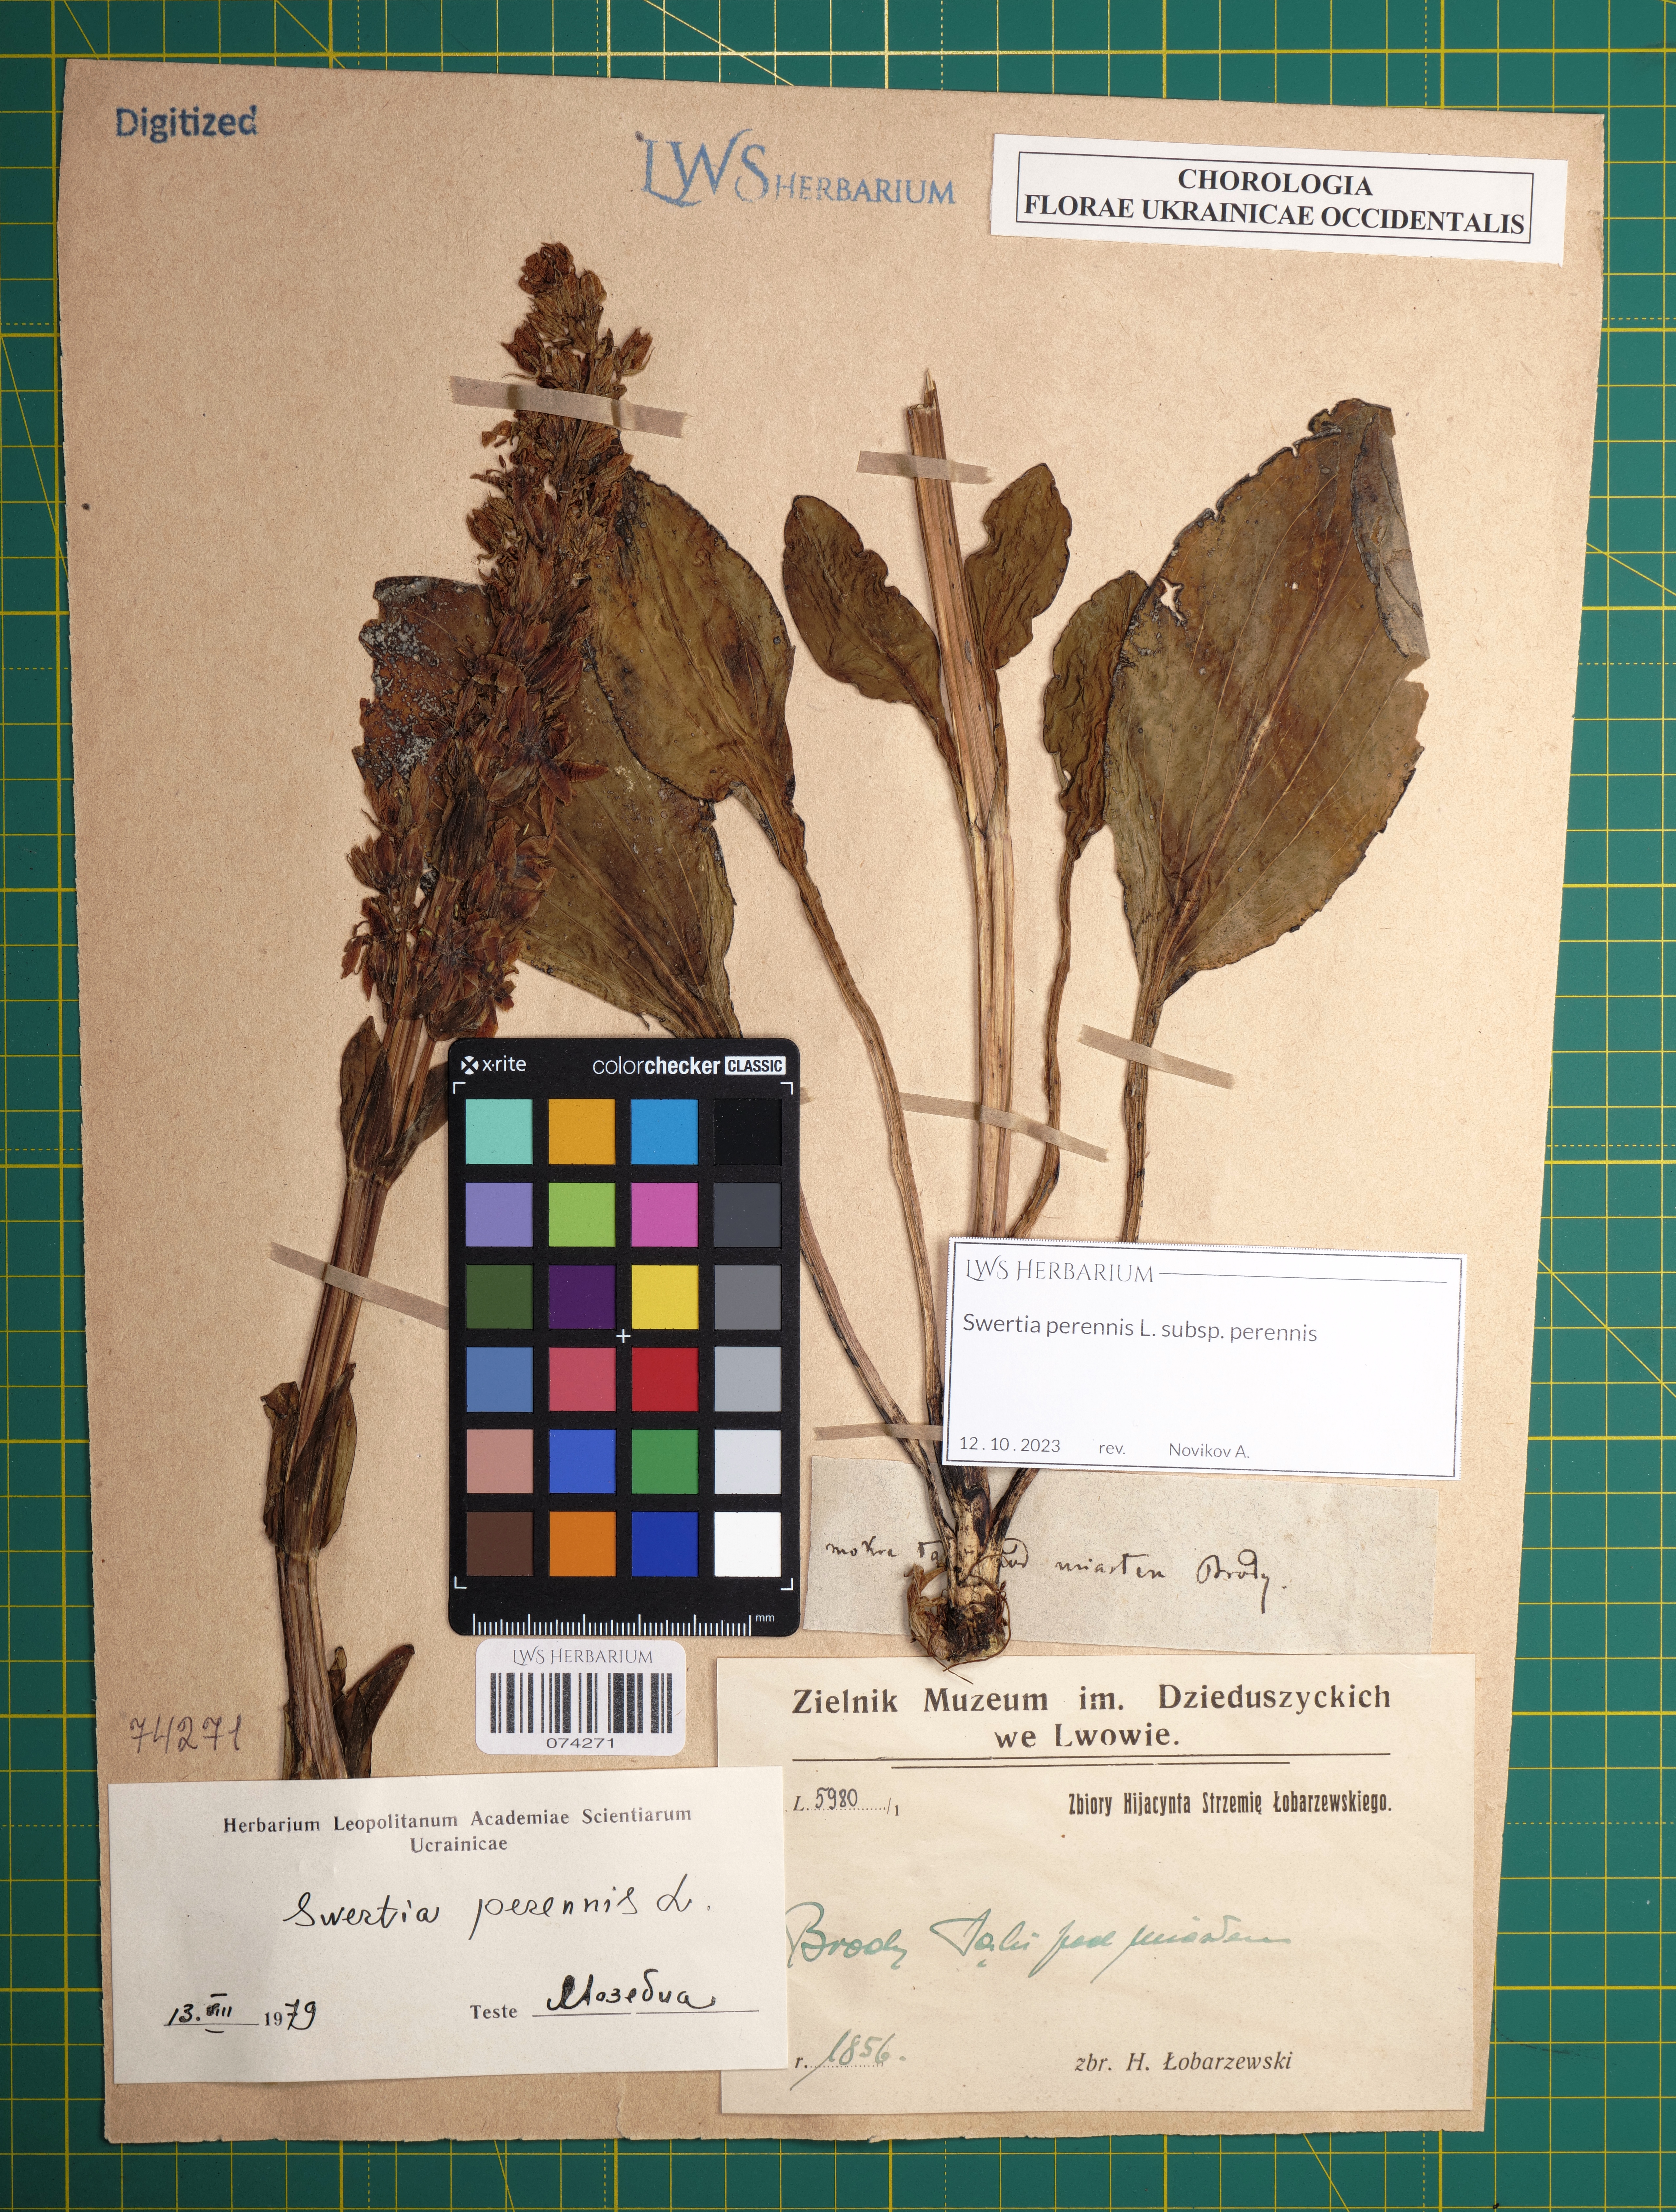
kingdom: Plantae
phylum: Tracheophyta
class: Magnoliopsida
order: Gentianales
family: Gentianaceae
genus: Swertia
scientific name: Swertia perennis
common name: Alpine bog swertia
